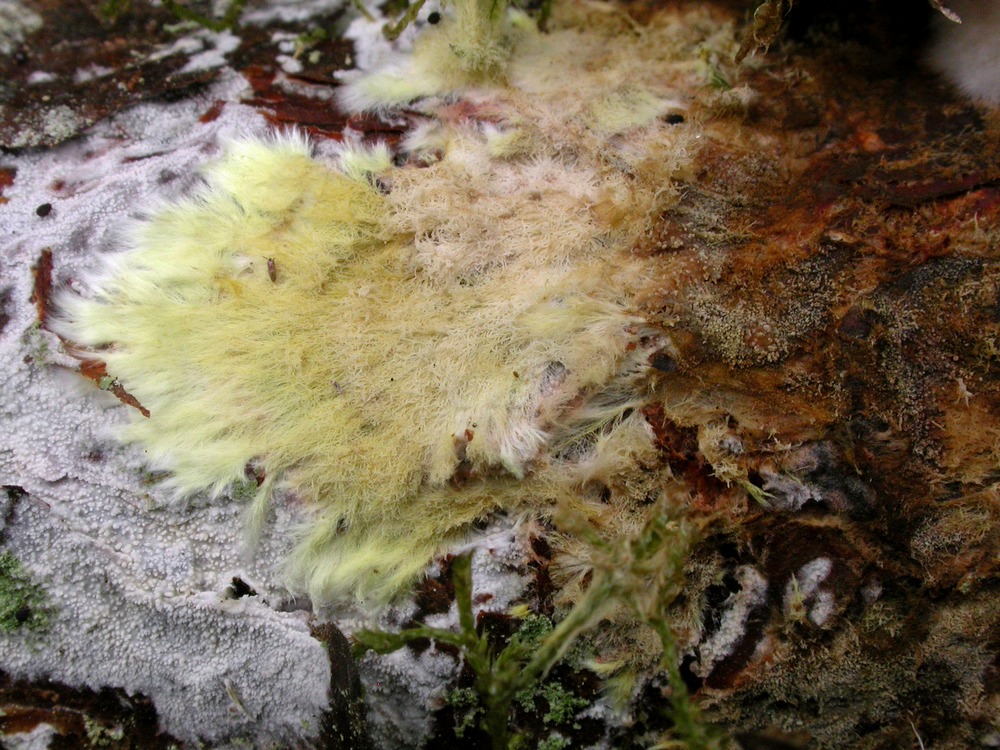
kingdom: Fungi
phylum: Basidiomycota
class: Agaricomycetes
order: Russulales
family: Xenasmataceae
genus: Xenasmatella
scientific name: Xenasmatella vaga
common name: svovl-strenghinde
